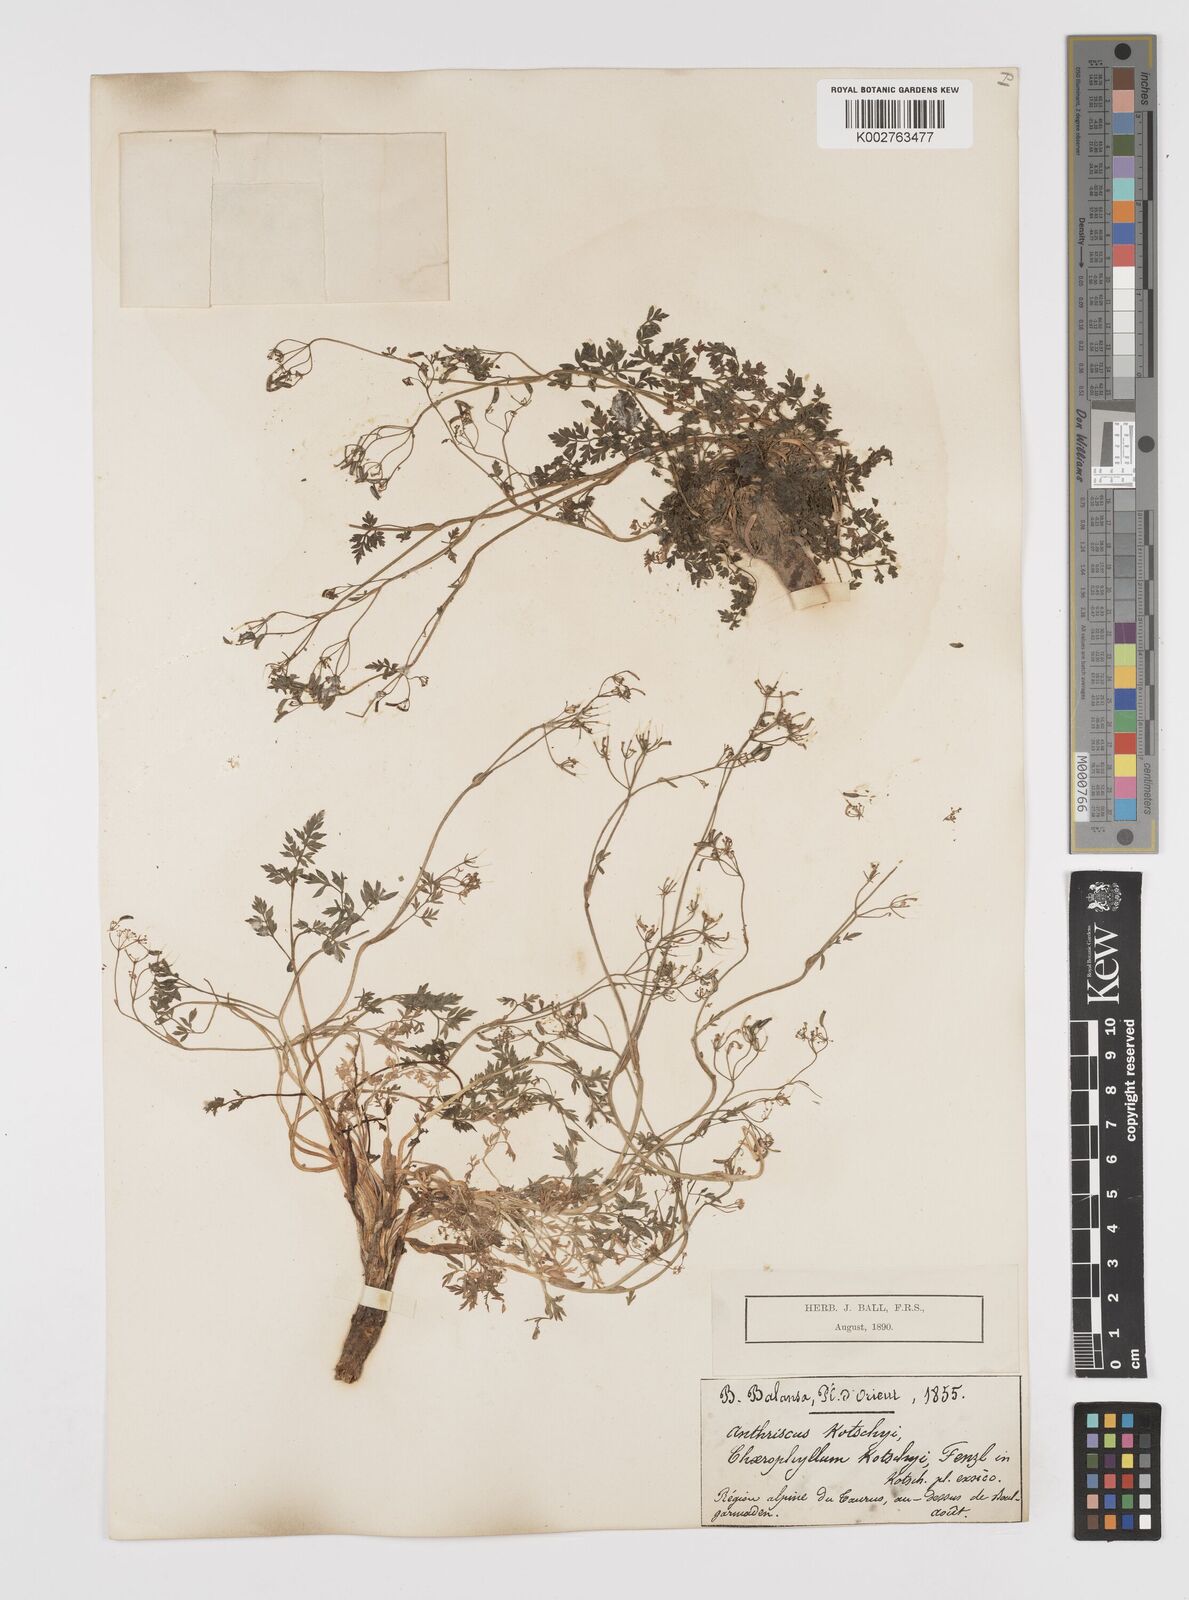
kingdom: Plantae
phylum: Tracheophyta
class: Magnoliopsida
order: Apiales
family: Apiaceae
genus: Anthriscus
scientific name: Anthriscus kotschyi
